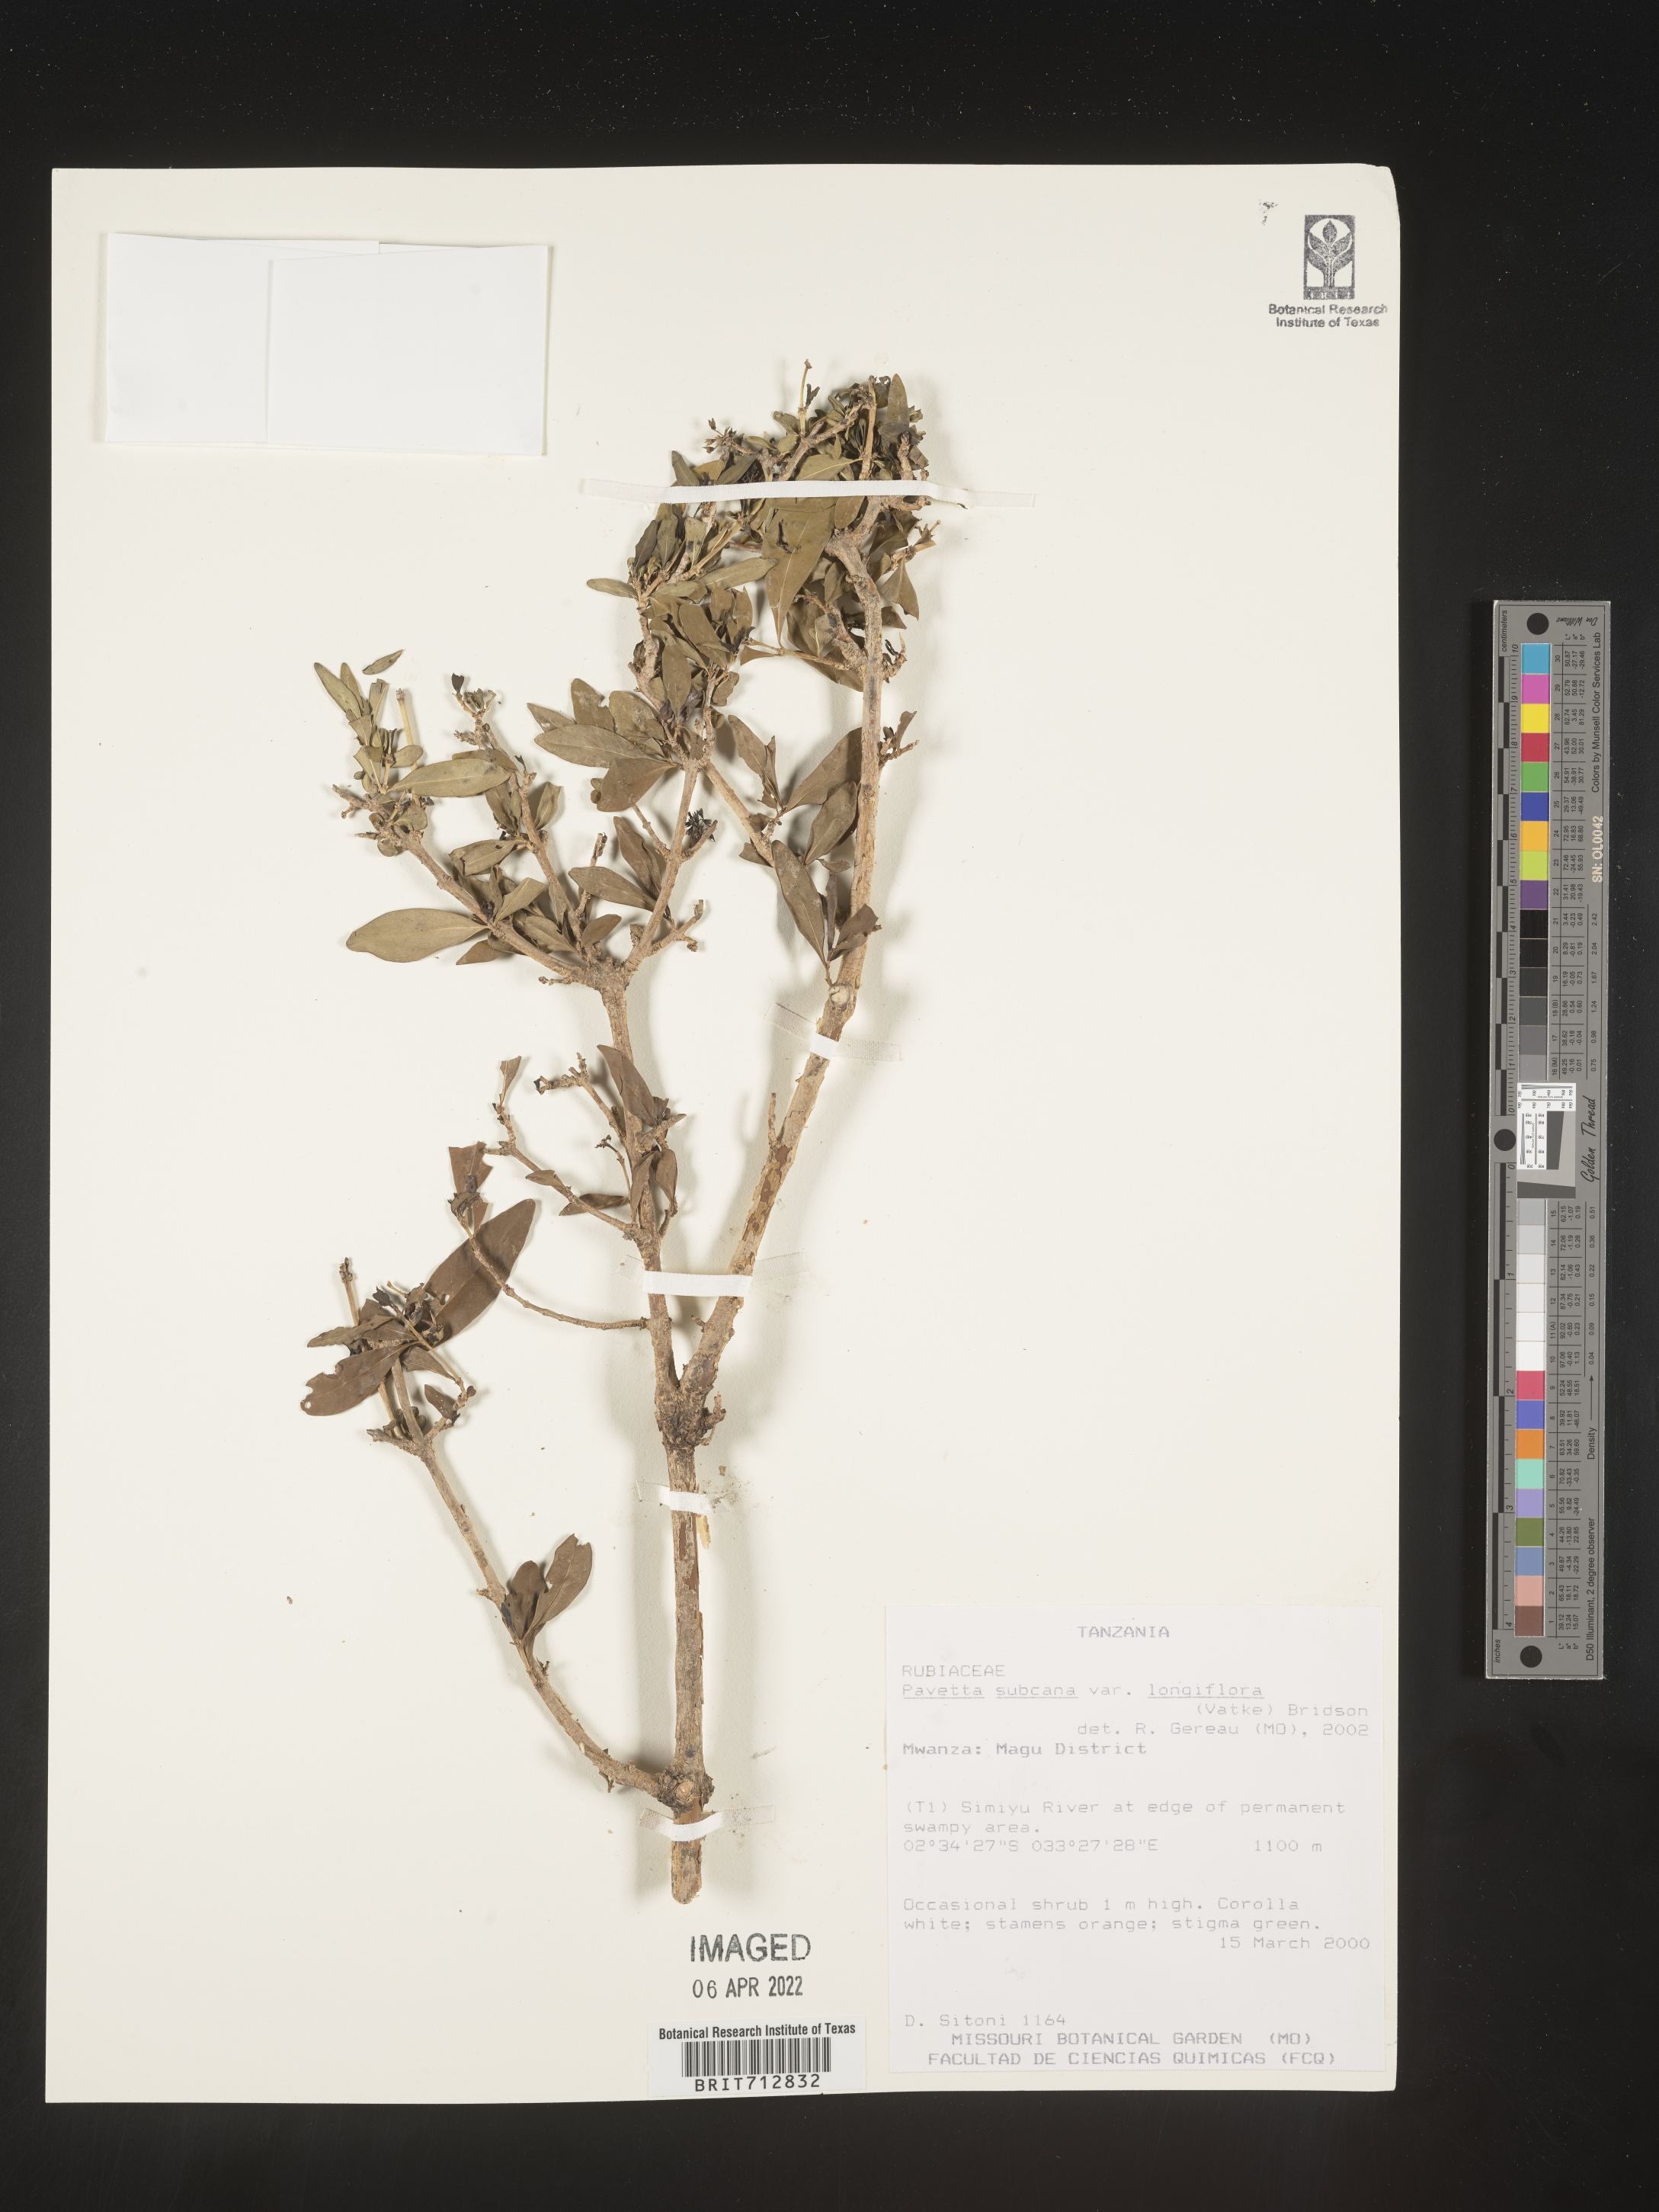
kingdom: Plantae
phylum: Tracheophyta
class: Magnoliopsida
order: Gentianales
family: Rubiaceae
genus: Pavetta
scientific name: Pavetta
